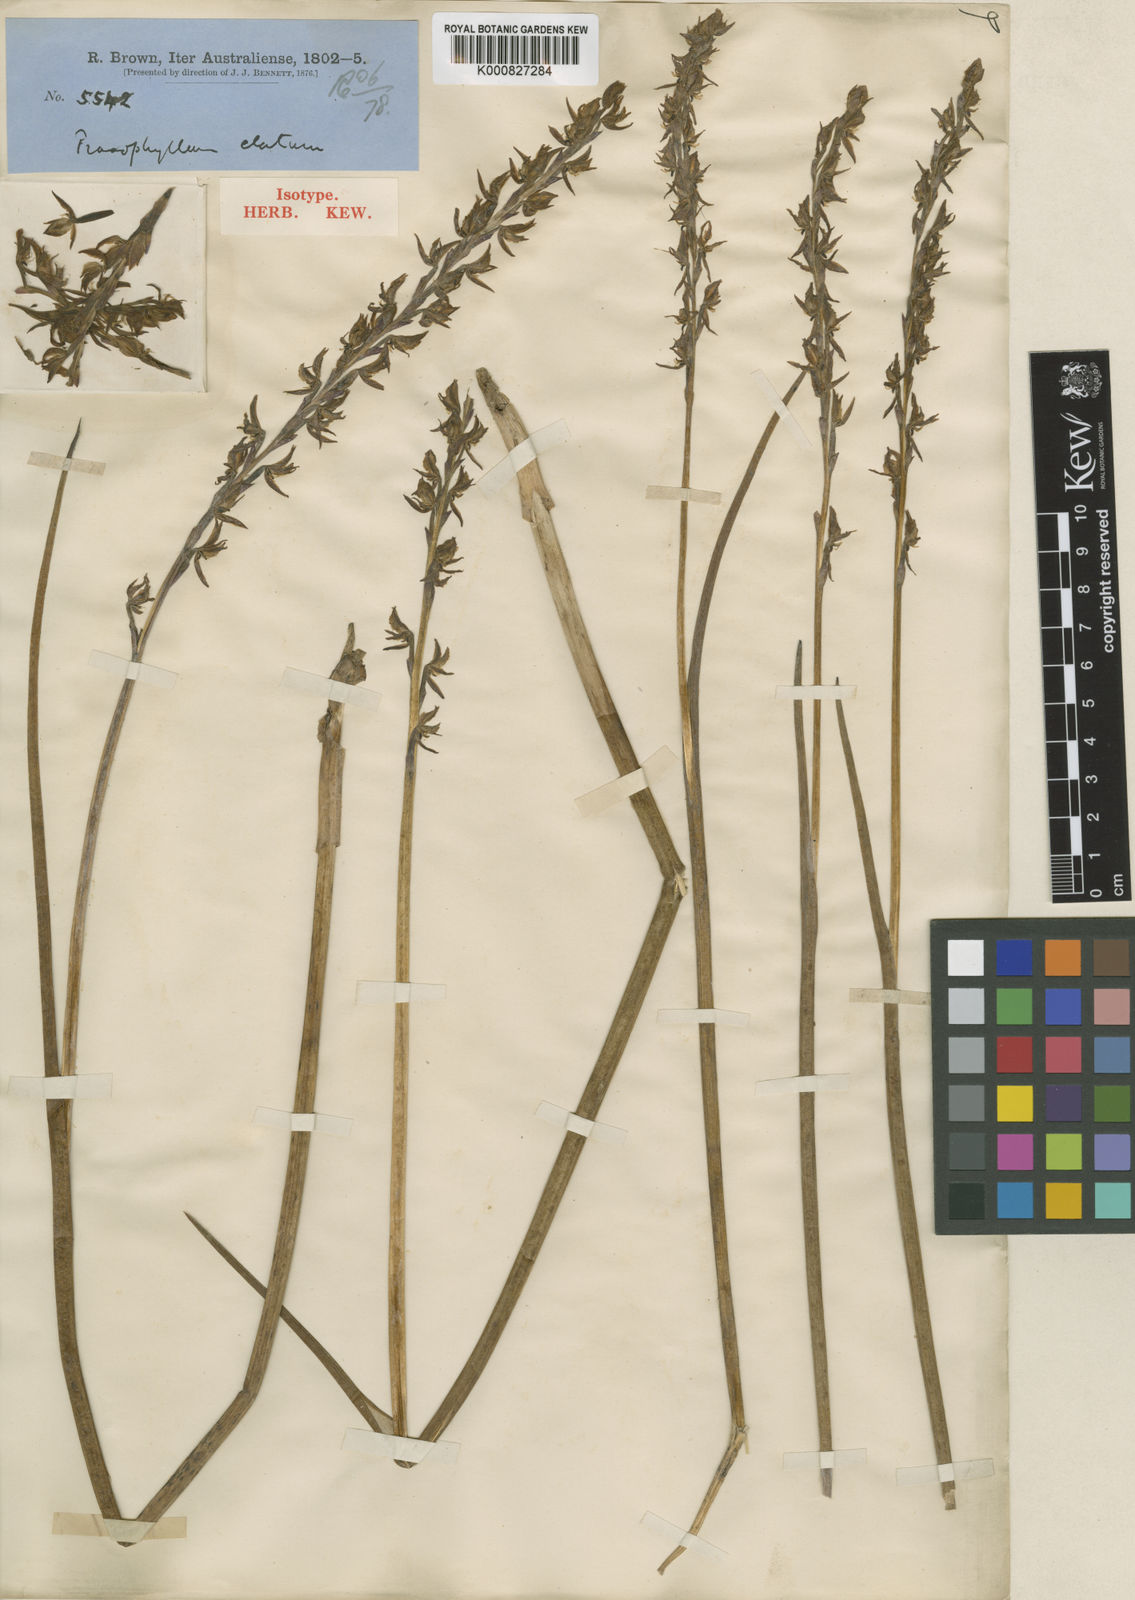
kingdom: Plantae
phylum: Tracheophyta
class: Liliopsida
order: Asparagales
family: Orchidaceae
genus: Prasophyllum
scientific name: Prasophyllum elatum
